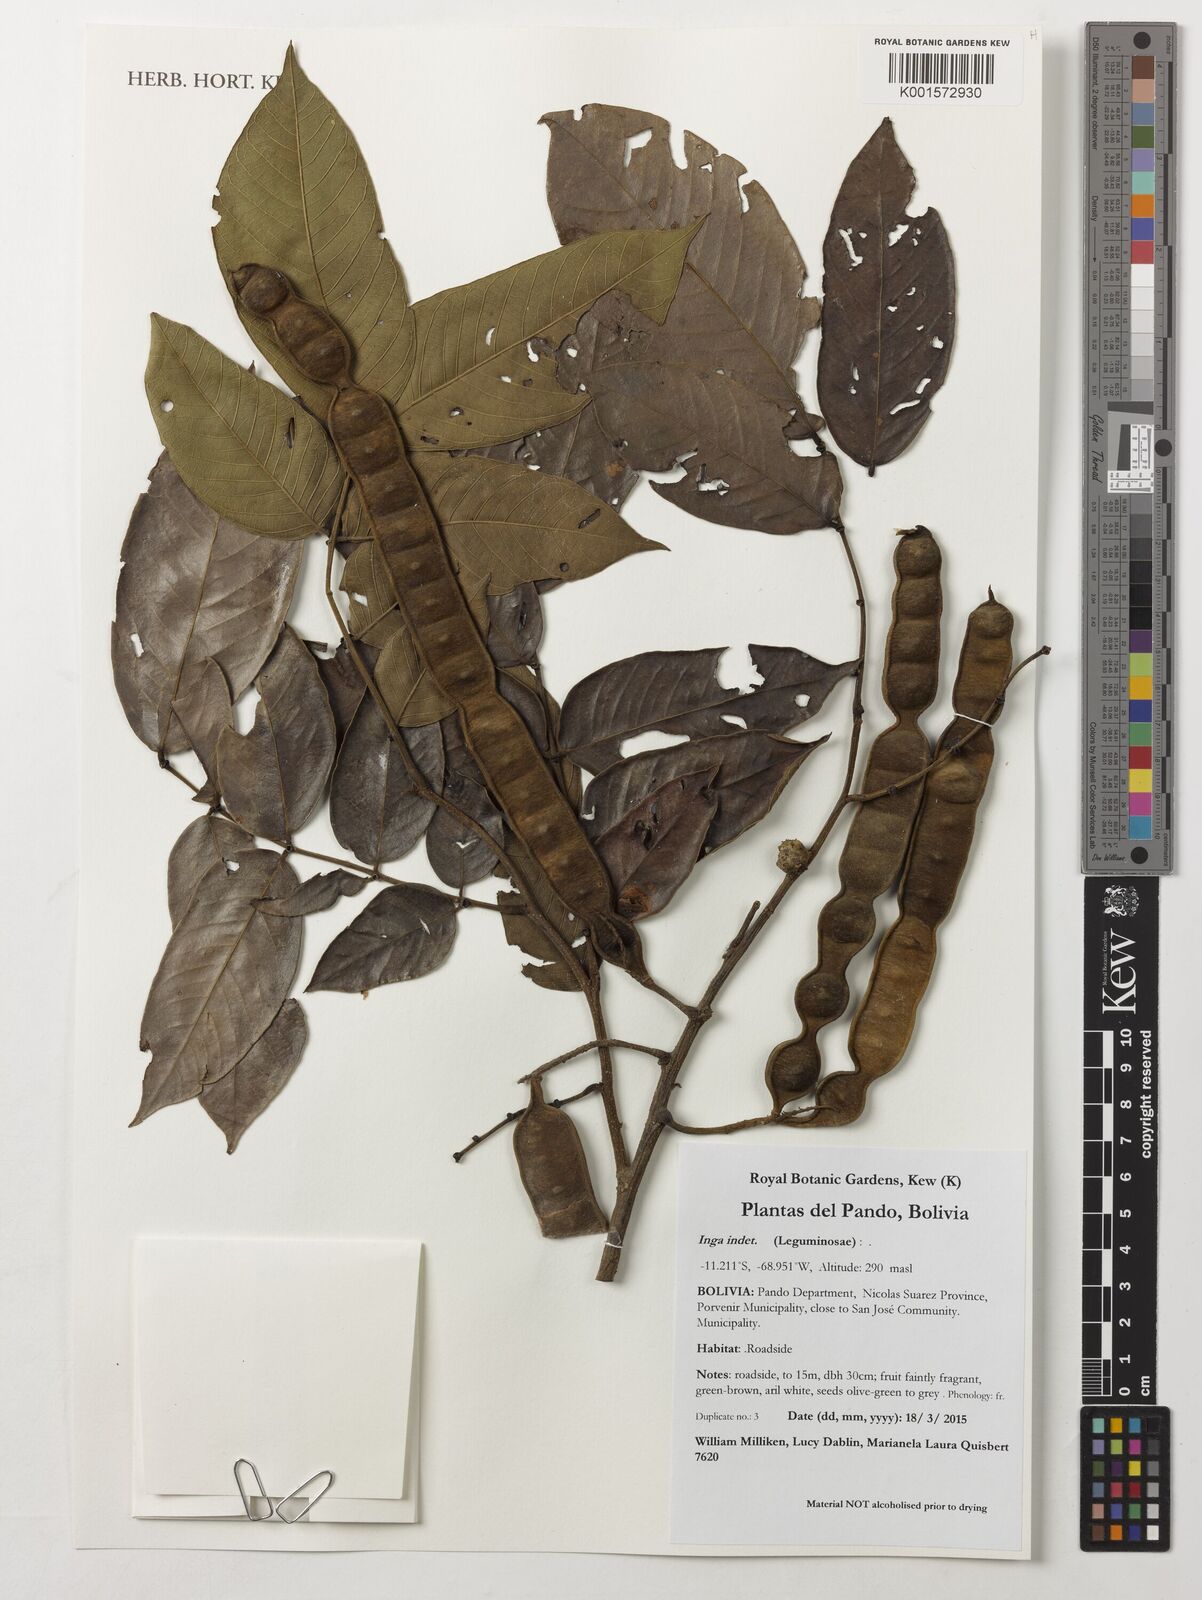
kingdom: Plantae
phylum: Tracheophyta
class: Magnoliopsida
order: Fabales
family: Fabaceae
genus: Inga
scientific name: Inga
